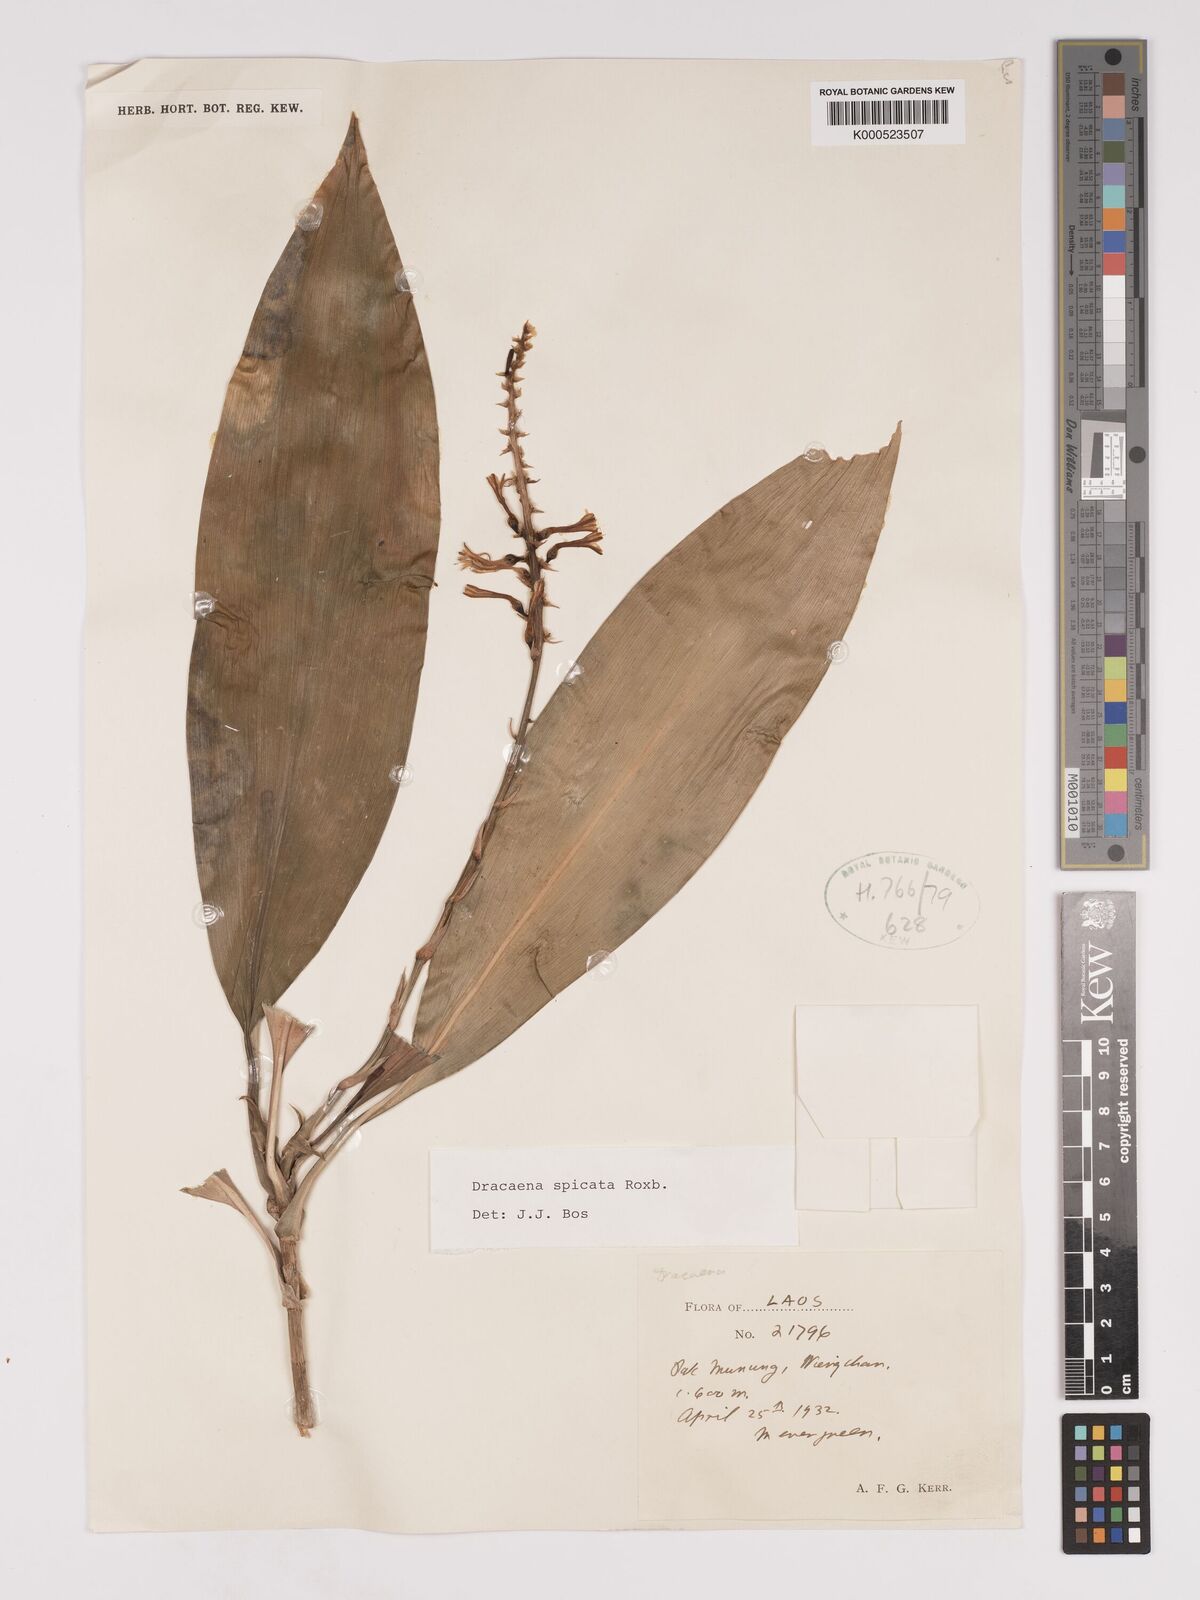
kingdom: Plantae
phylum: Tracheophyta
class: Liliopsida
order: Asparagales
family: Asparagaceae
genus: Dracaena
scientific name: Dracaena spicata
